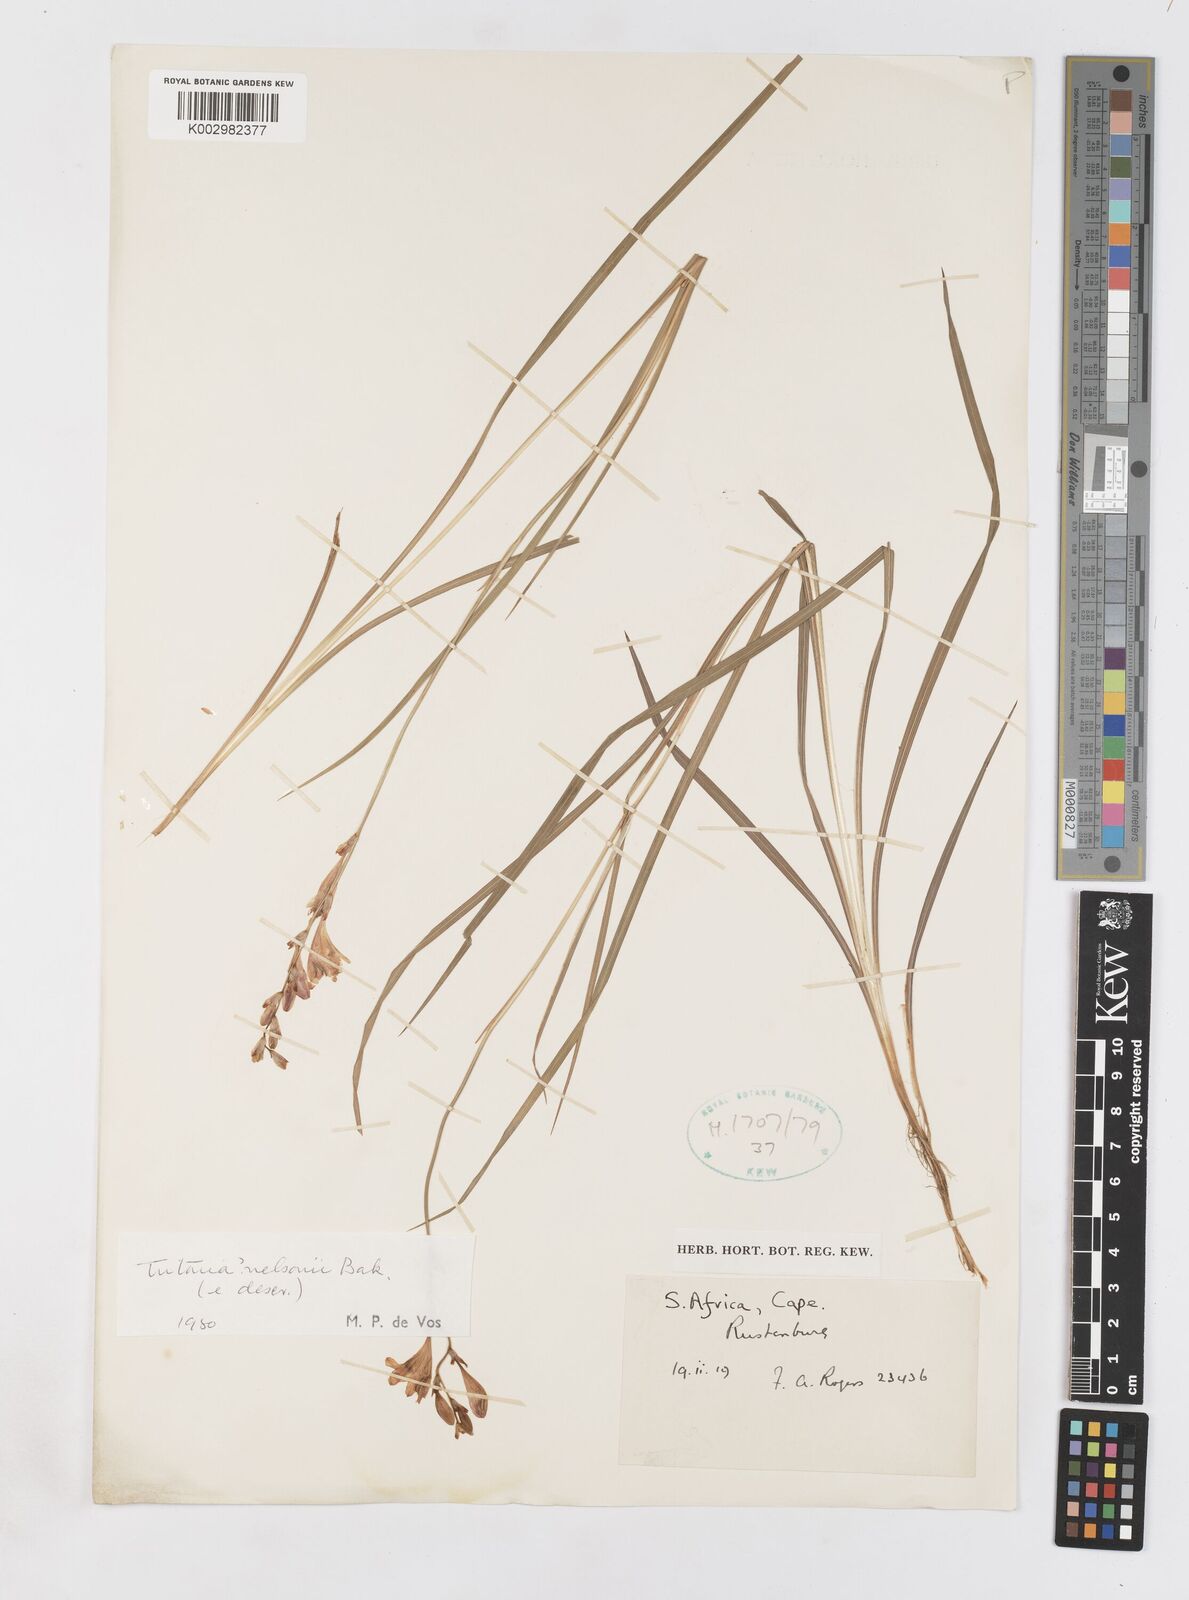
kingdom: Plantae
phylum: Tracheophyta
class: Liliopsida
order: Asparagales
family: Iridaceae
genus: Tritonia
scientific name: Tritonia nelsonii
